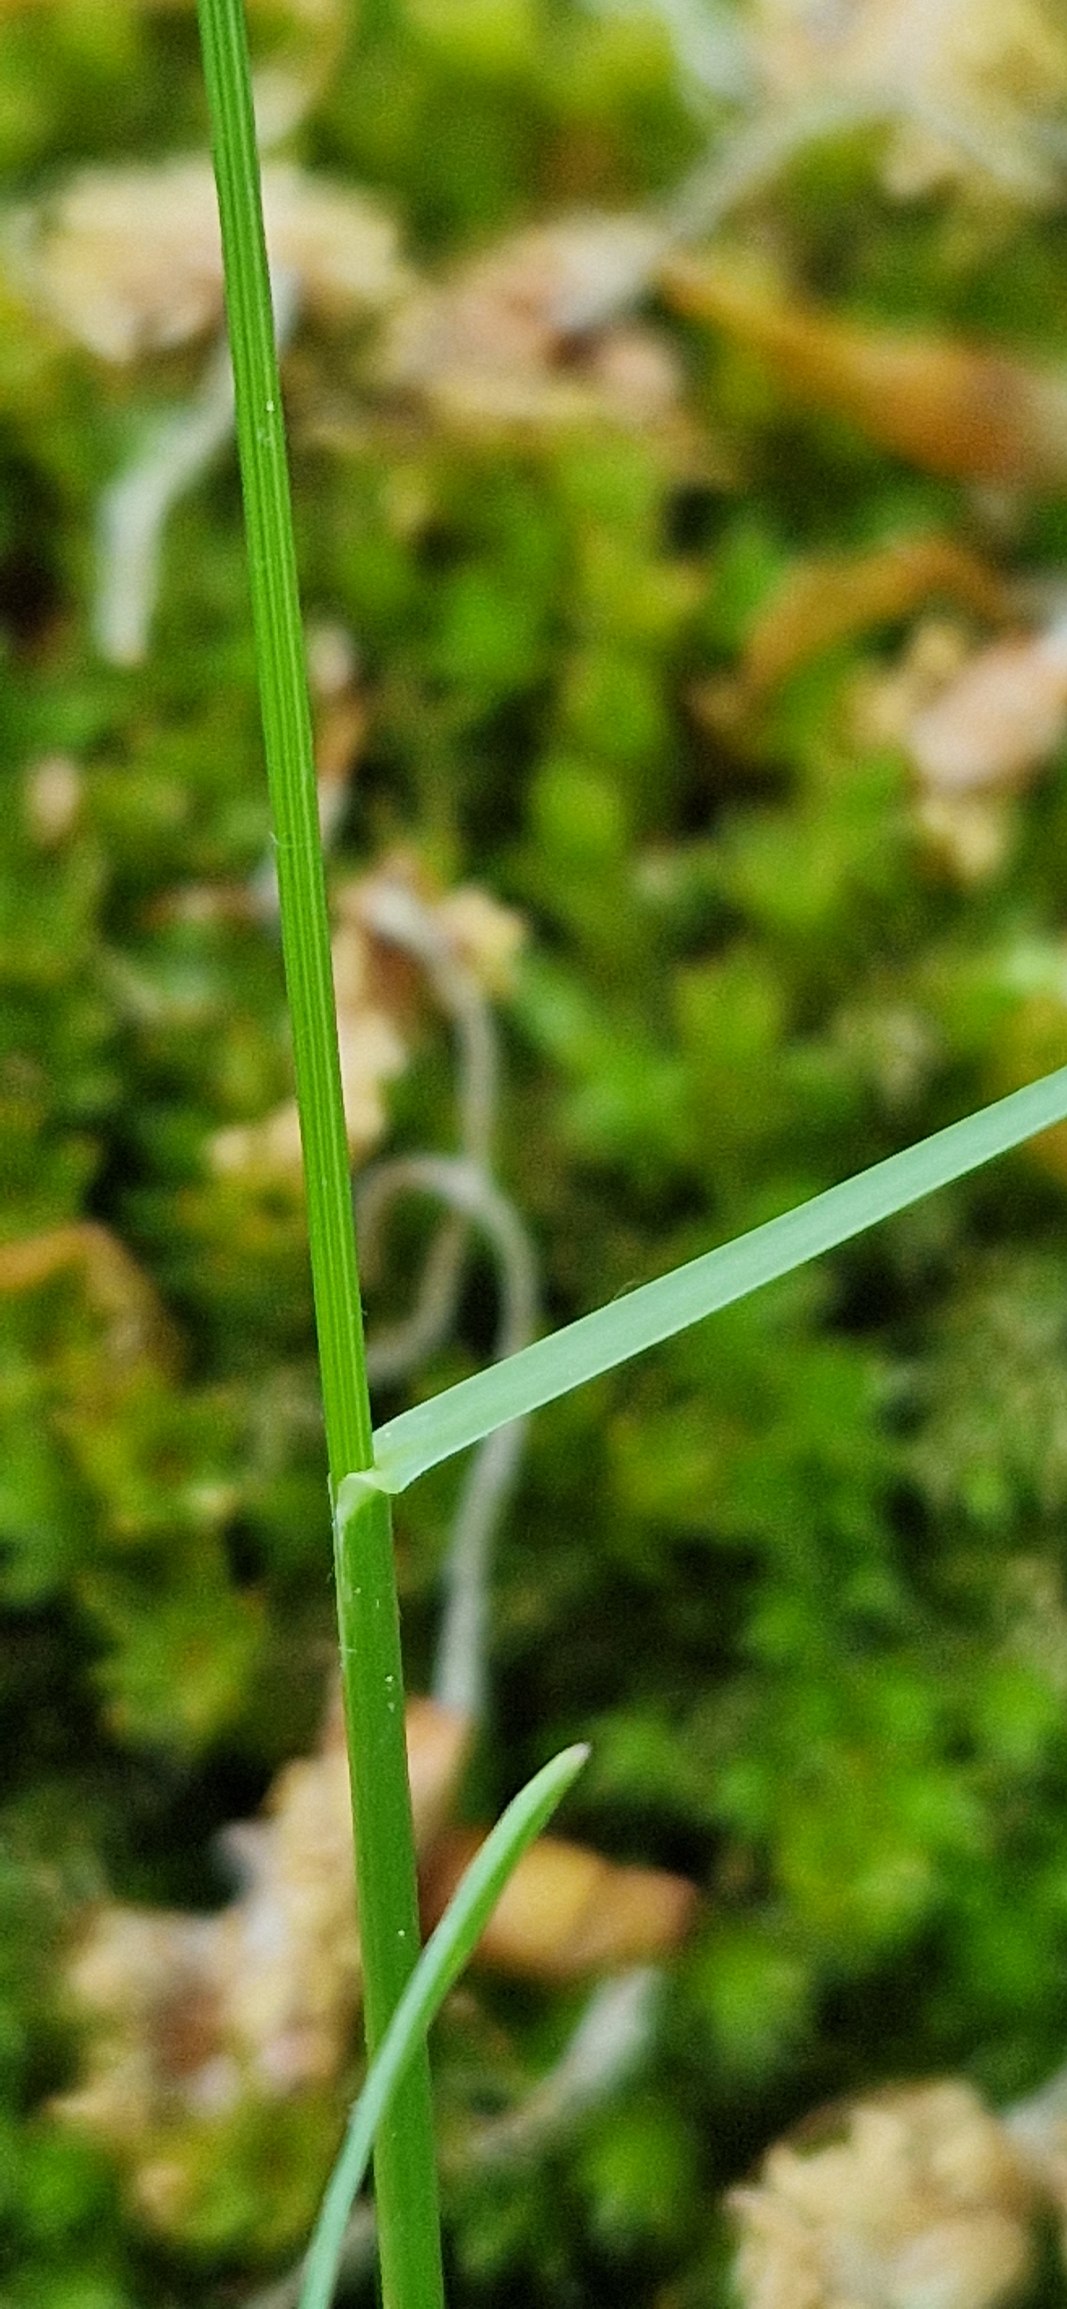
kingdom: Plantae
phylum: Tracheophyta
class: Liliopsida
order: Poales
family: Poaceae
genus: Poa
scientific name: Poa nemoralis
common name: Lund-rapgræs
